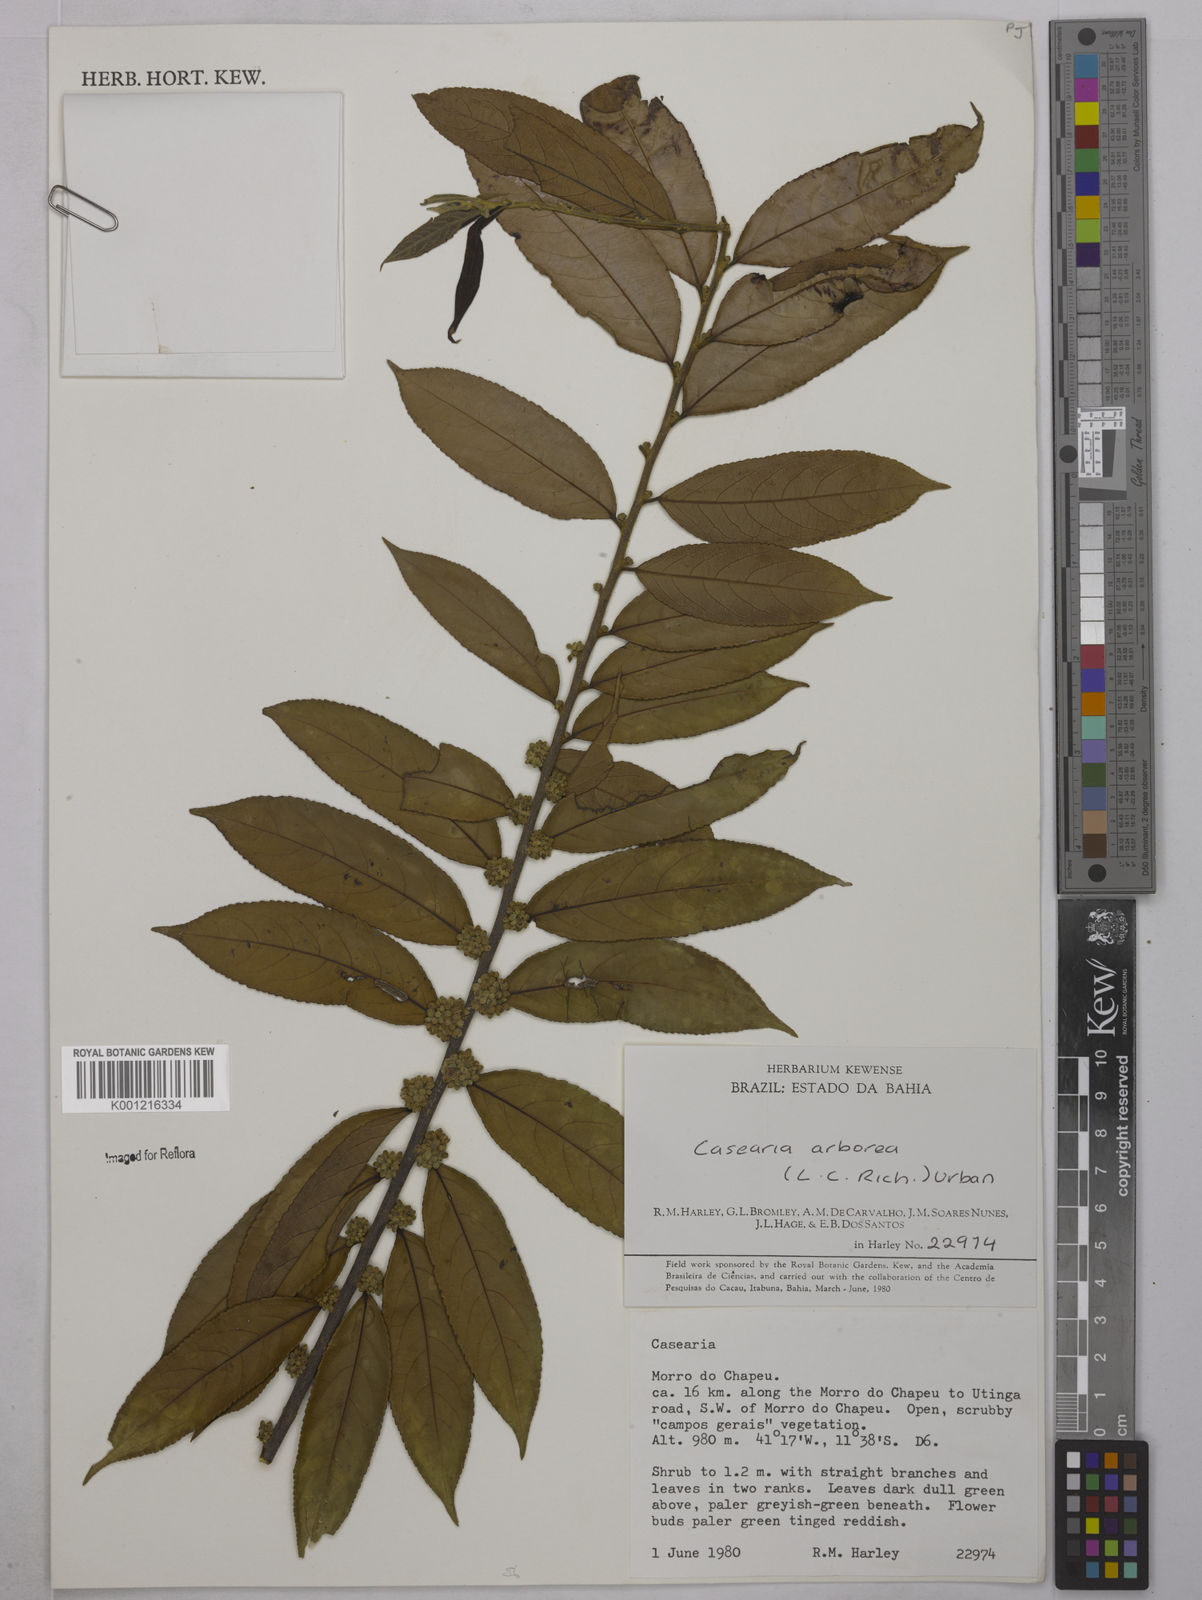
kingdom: Plantae
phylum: Tracheophyta
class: Magnoliopsida
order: Malpighiales
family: Salicaceae
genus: Casearia
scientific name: Casearia arborea
